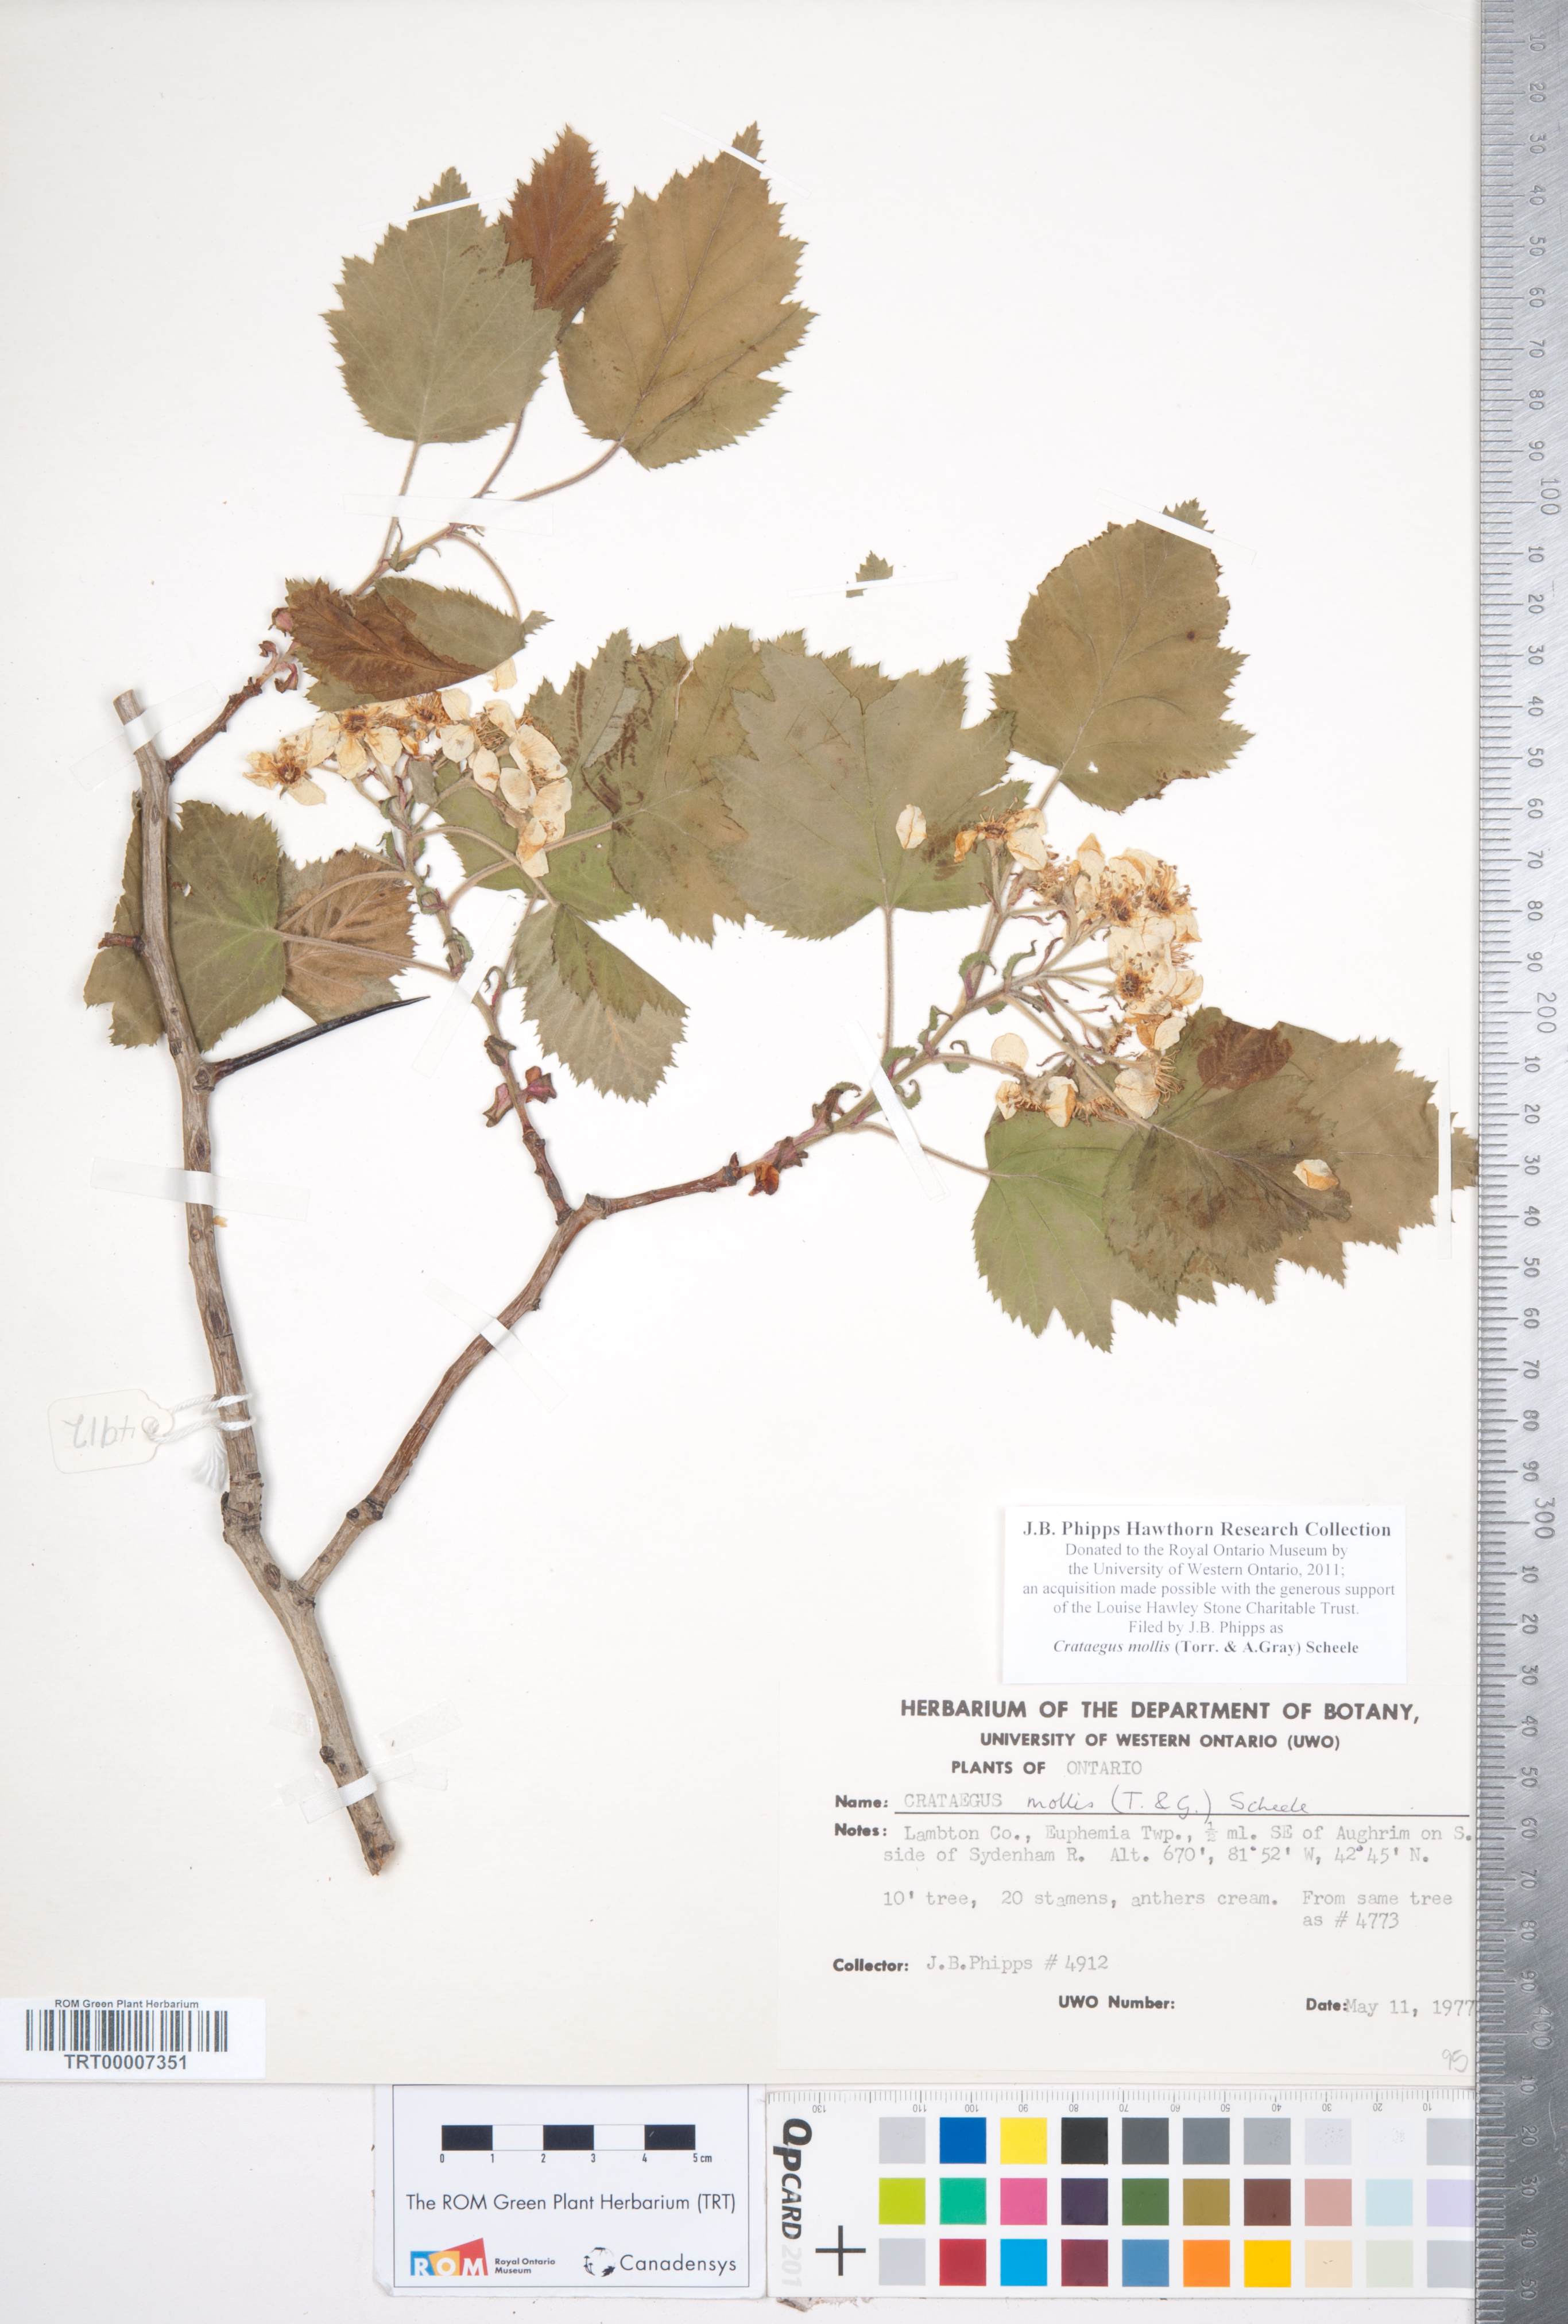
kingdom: Plantae
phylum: Tracheophyta
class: Magnoliopsida
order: Rosales
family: Rosaceae
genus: Crataegus
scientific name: Crataegus mollis
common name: Downy hawthorn
